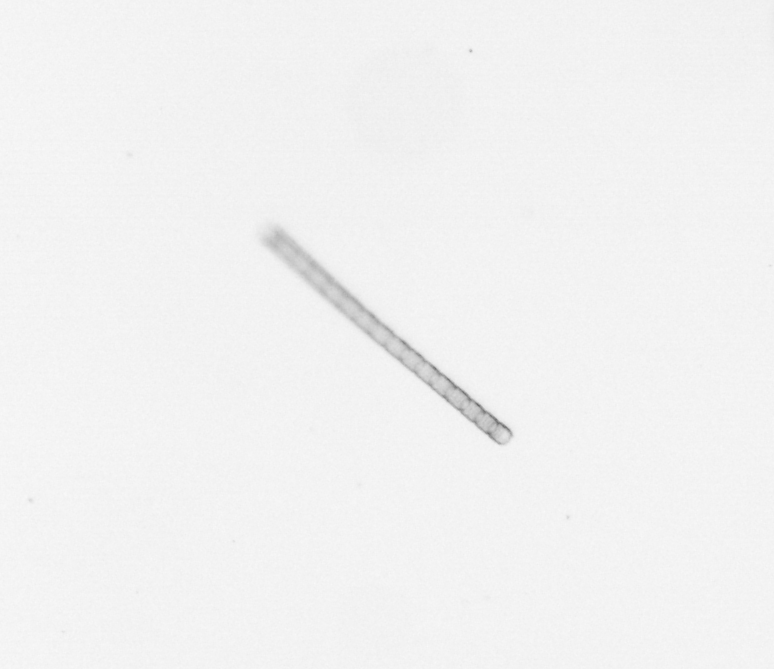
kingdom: Chromista
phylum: Ochrophyta
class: Bacillariophyceae
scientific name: Bacillariophyceae
